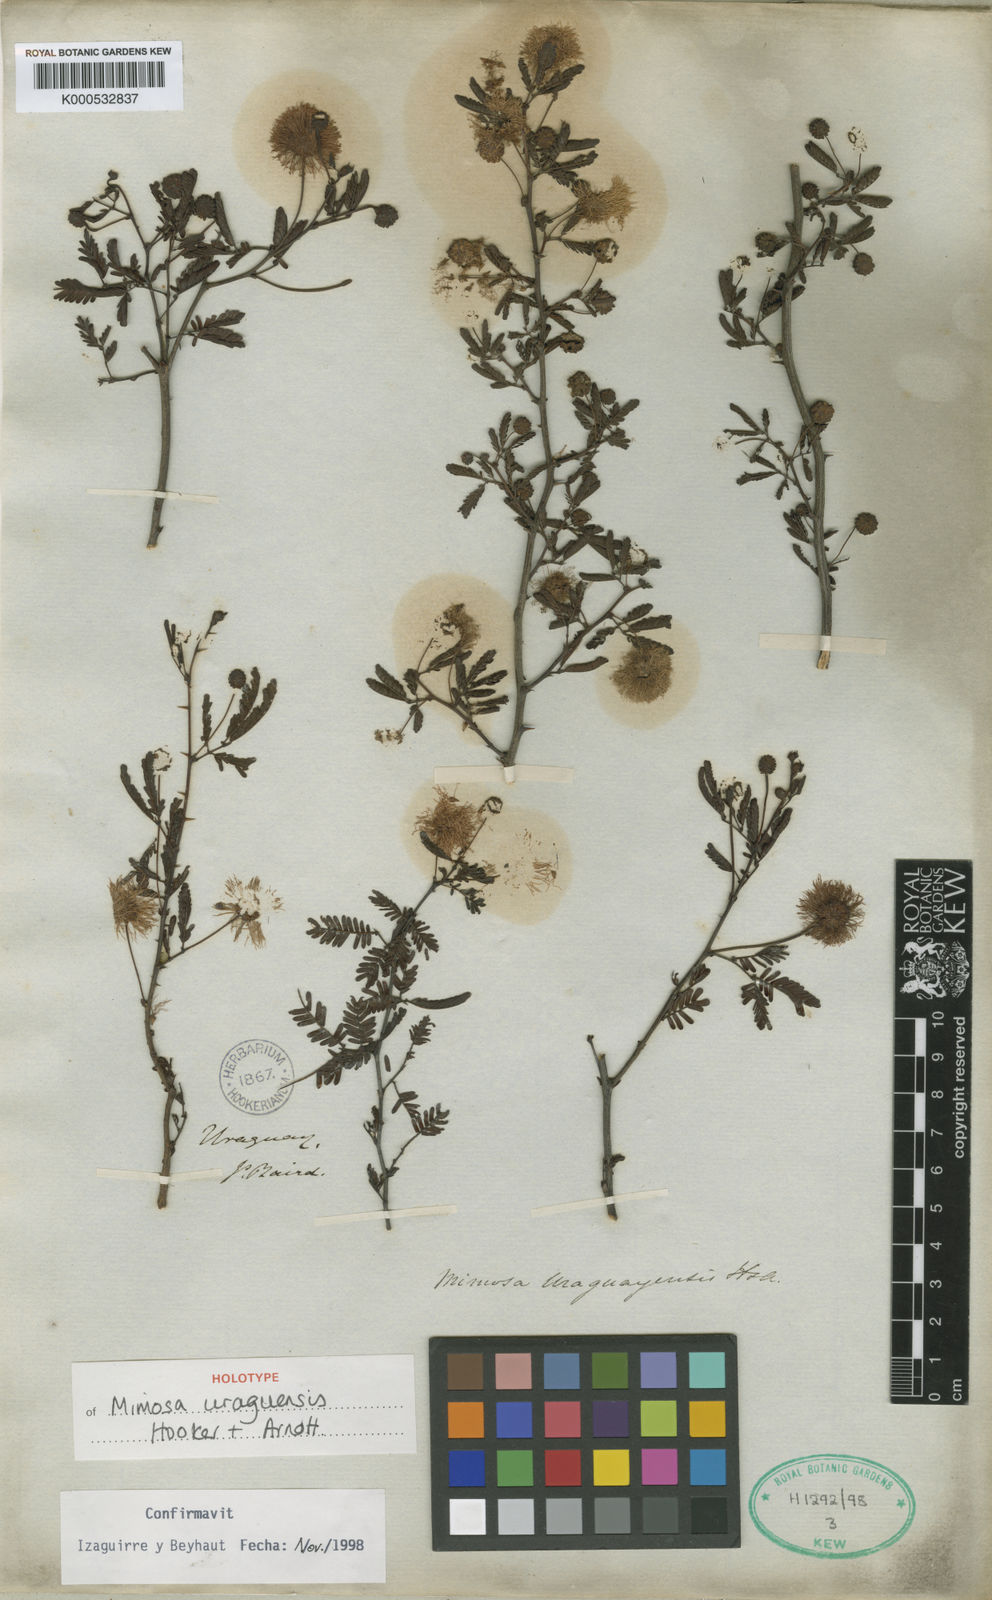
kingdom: Plantae
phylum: Tracheophyta
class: Magnoliopsida
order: Fabales
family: Fabaceae
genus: Mimosa
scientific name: Mimosa
